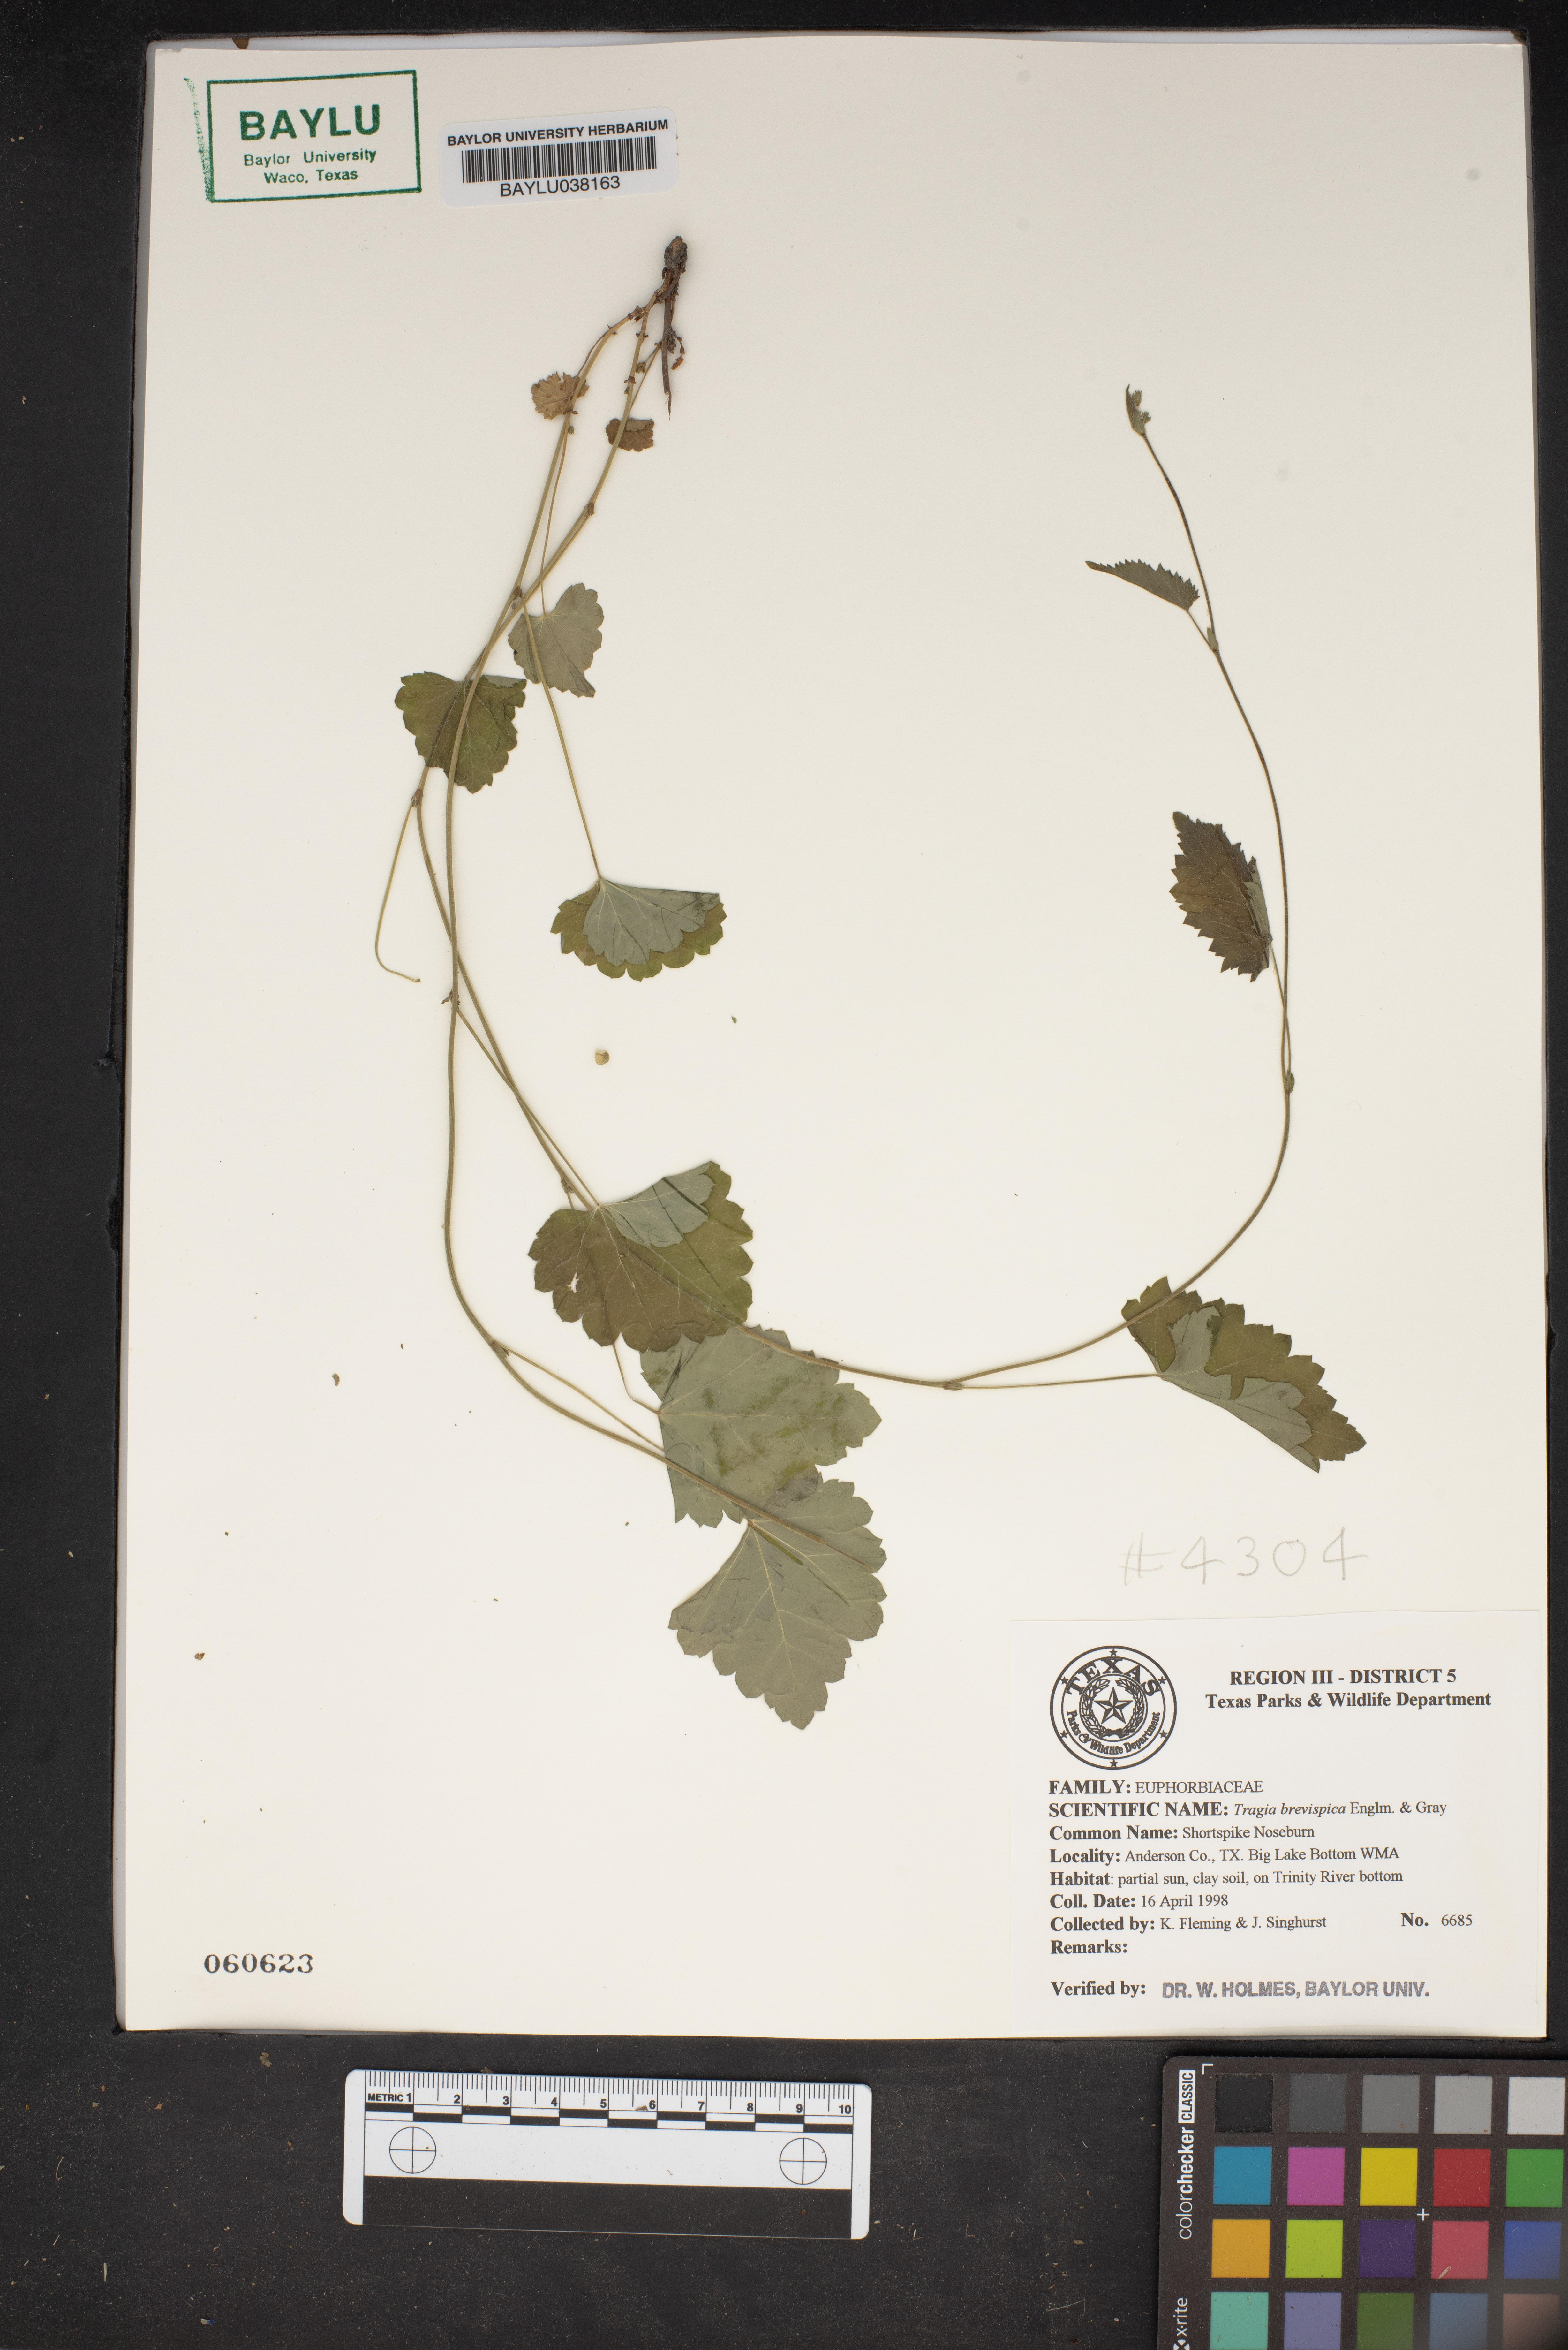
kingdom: Plantae
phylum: Tracheophyta
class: Magnoliopsida
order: Malpighiales
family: Euphorbiaceae
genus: Tragia
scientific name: Tragia brevispica
